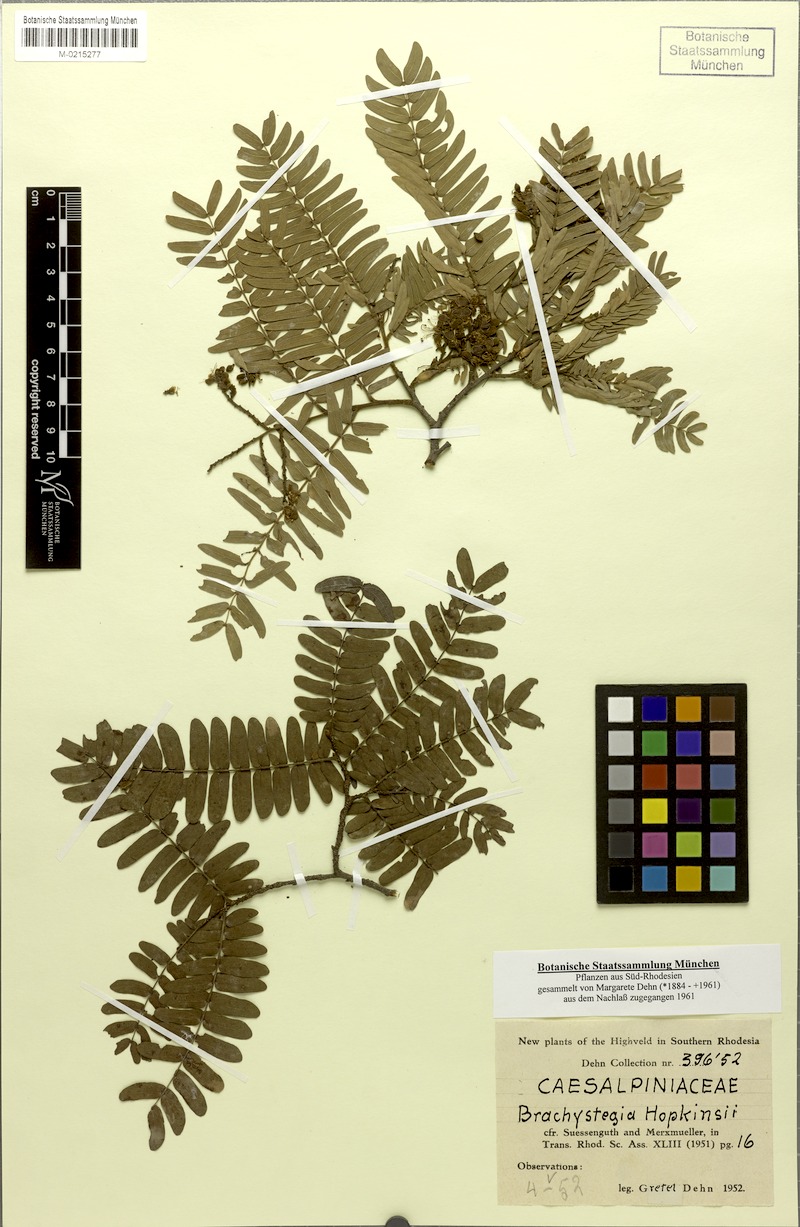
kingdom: Plantae
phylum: Tracheophyta
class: Magnoliopsida
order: Fabales
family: Fabaceae
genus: Brachystegia
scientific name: Brachystegia boehmii
